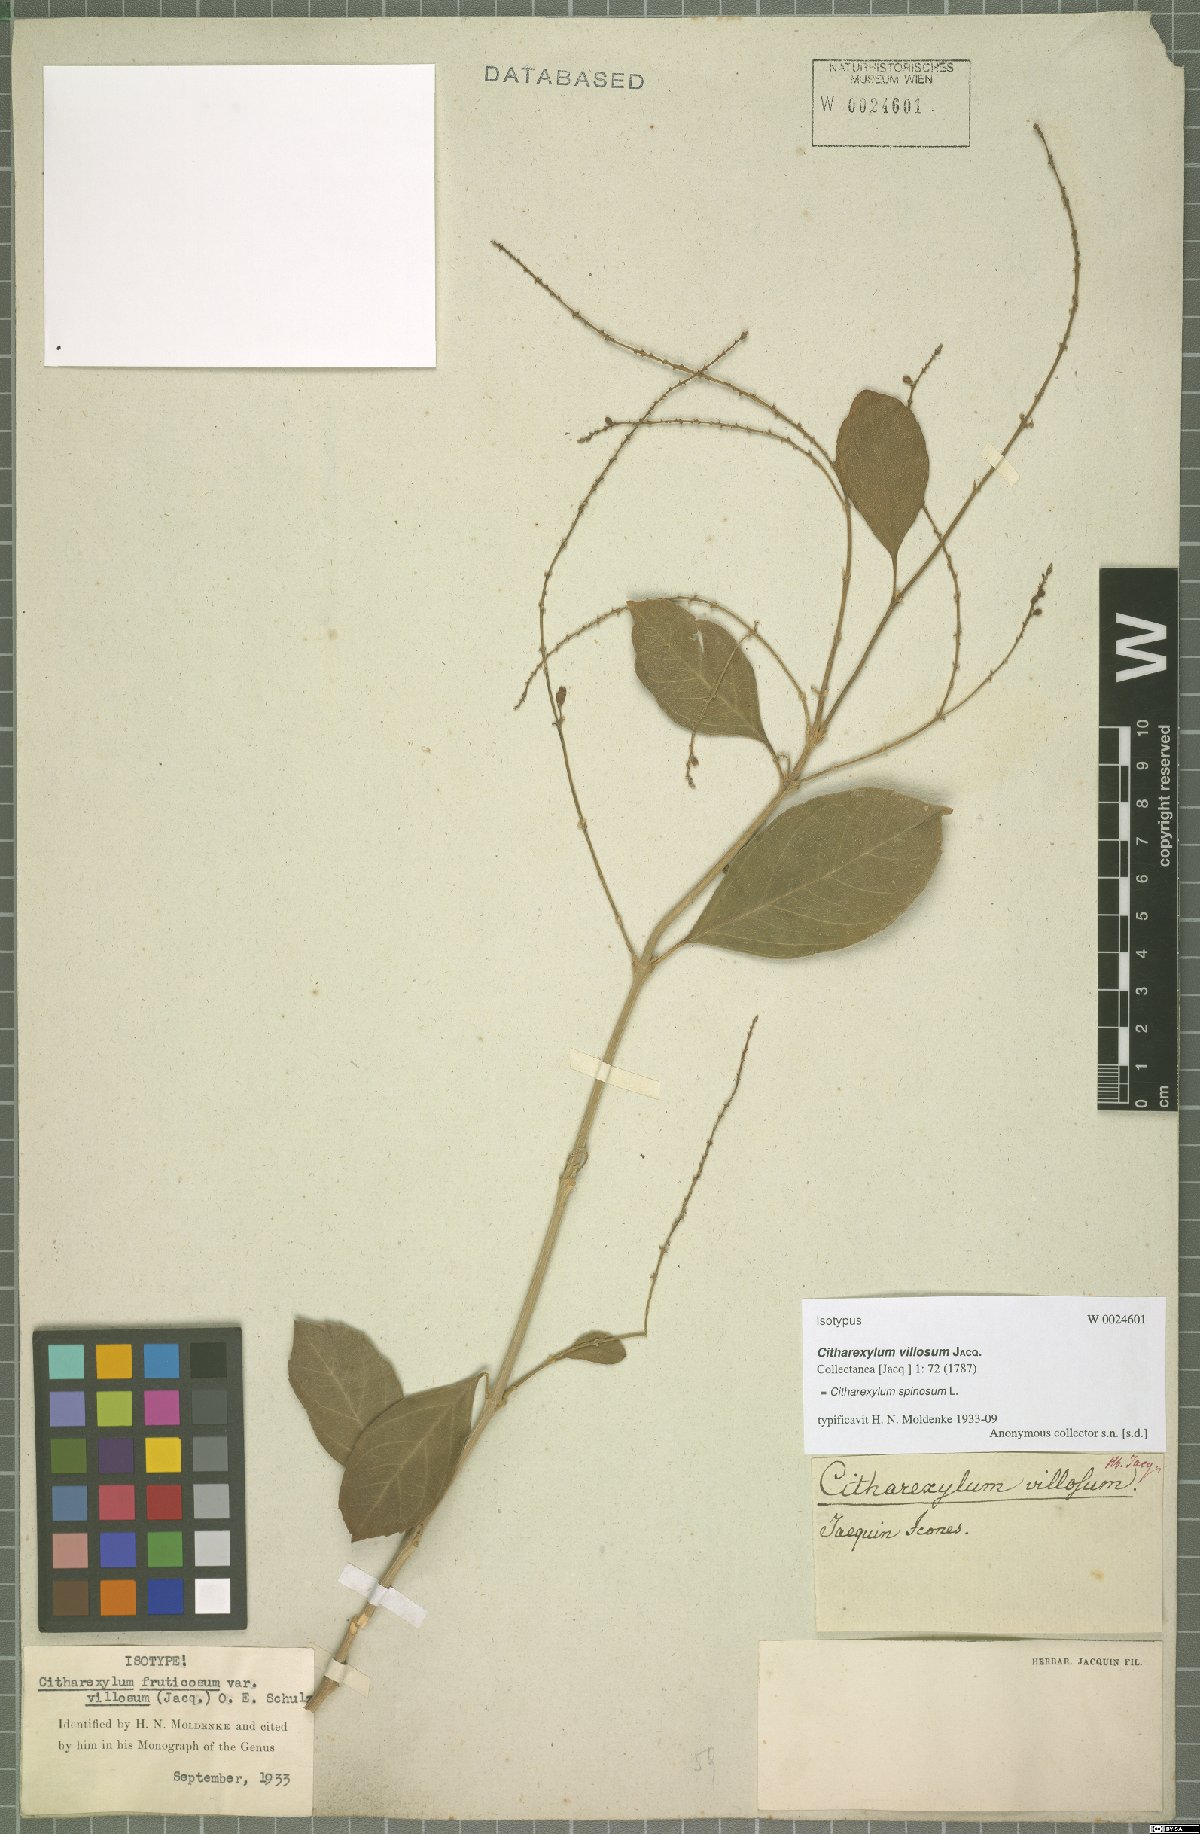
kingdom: Plantae
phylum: Tracheophyta
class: Magnoliopsida
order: Lamiales
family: Verbenaceae
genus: Citharexylum
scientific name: Citharexylum spinosum
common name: Fiddlewood
